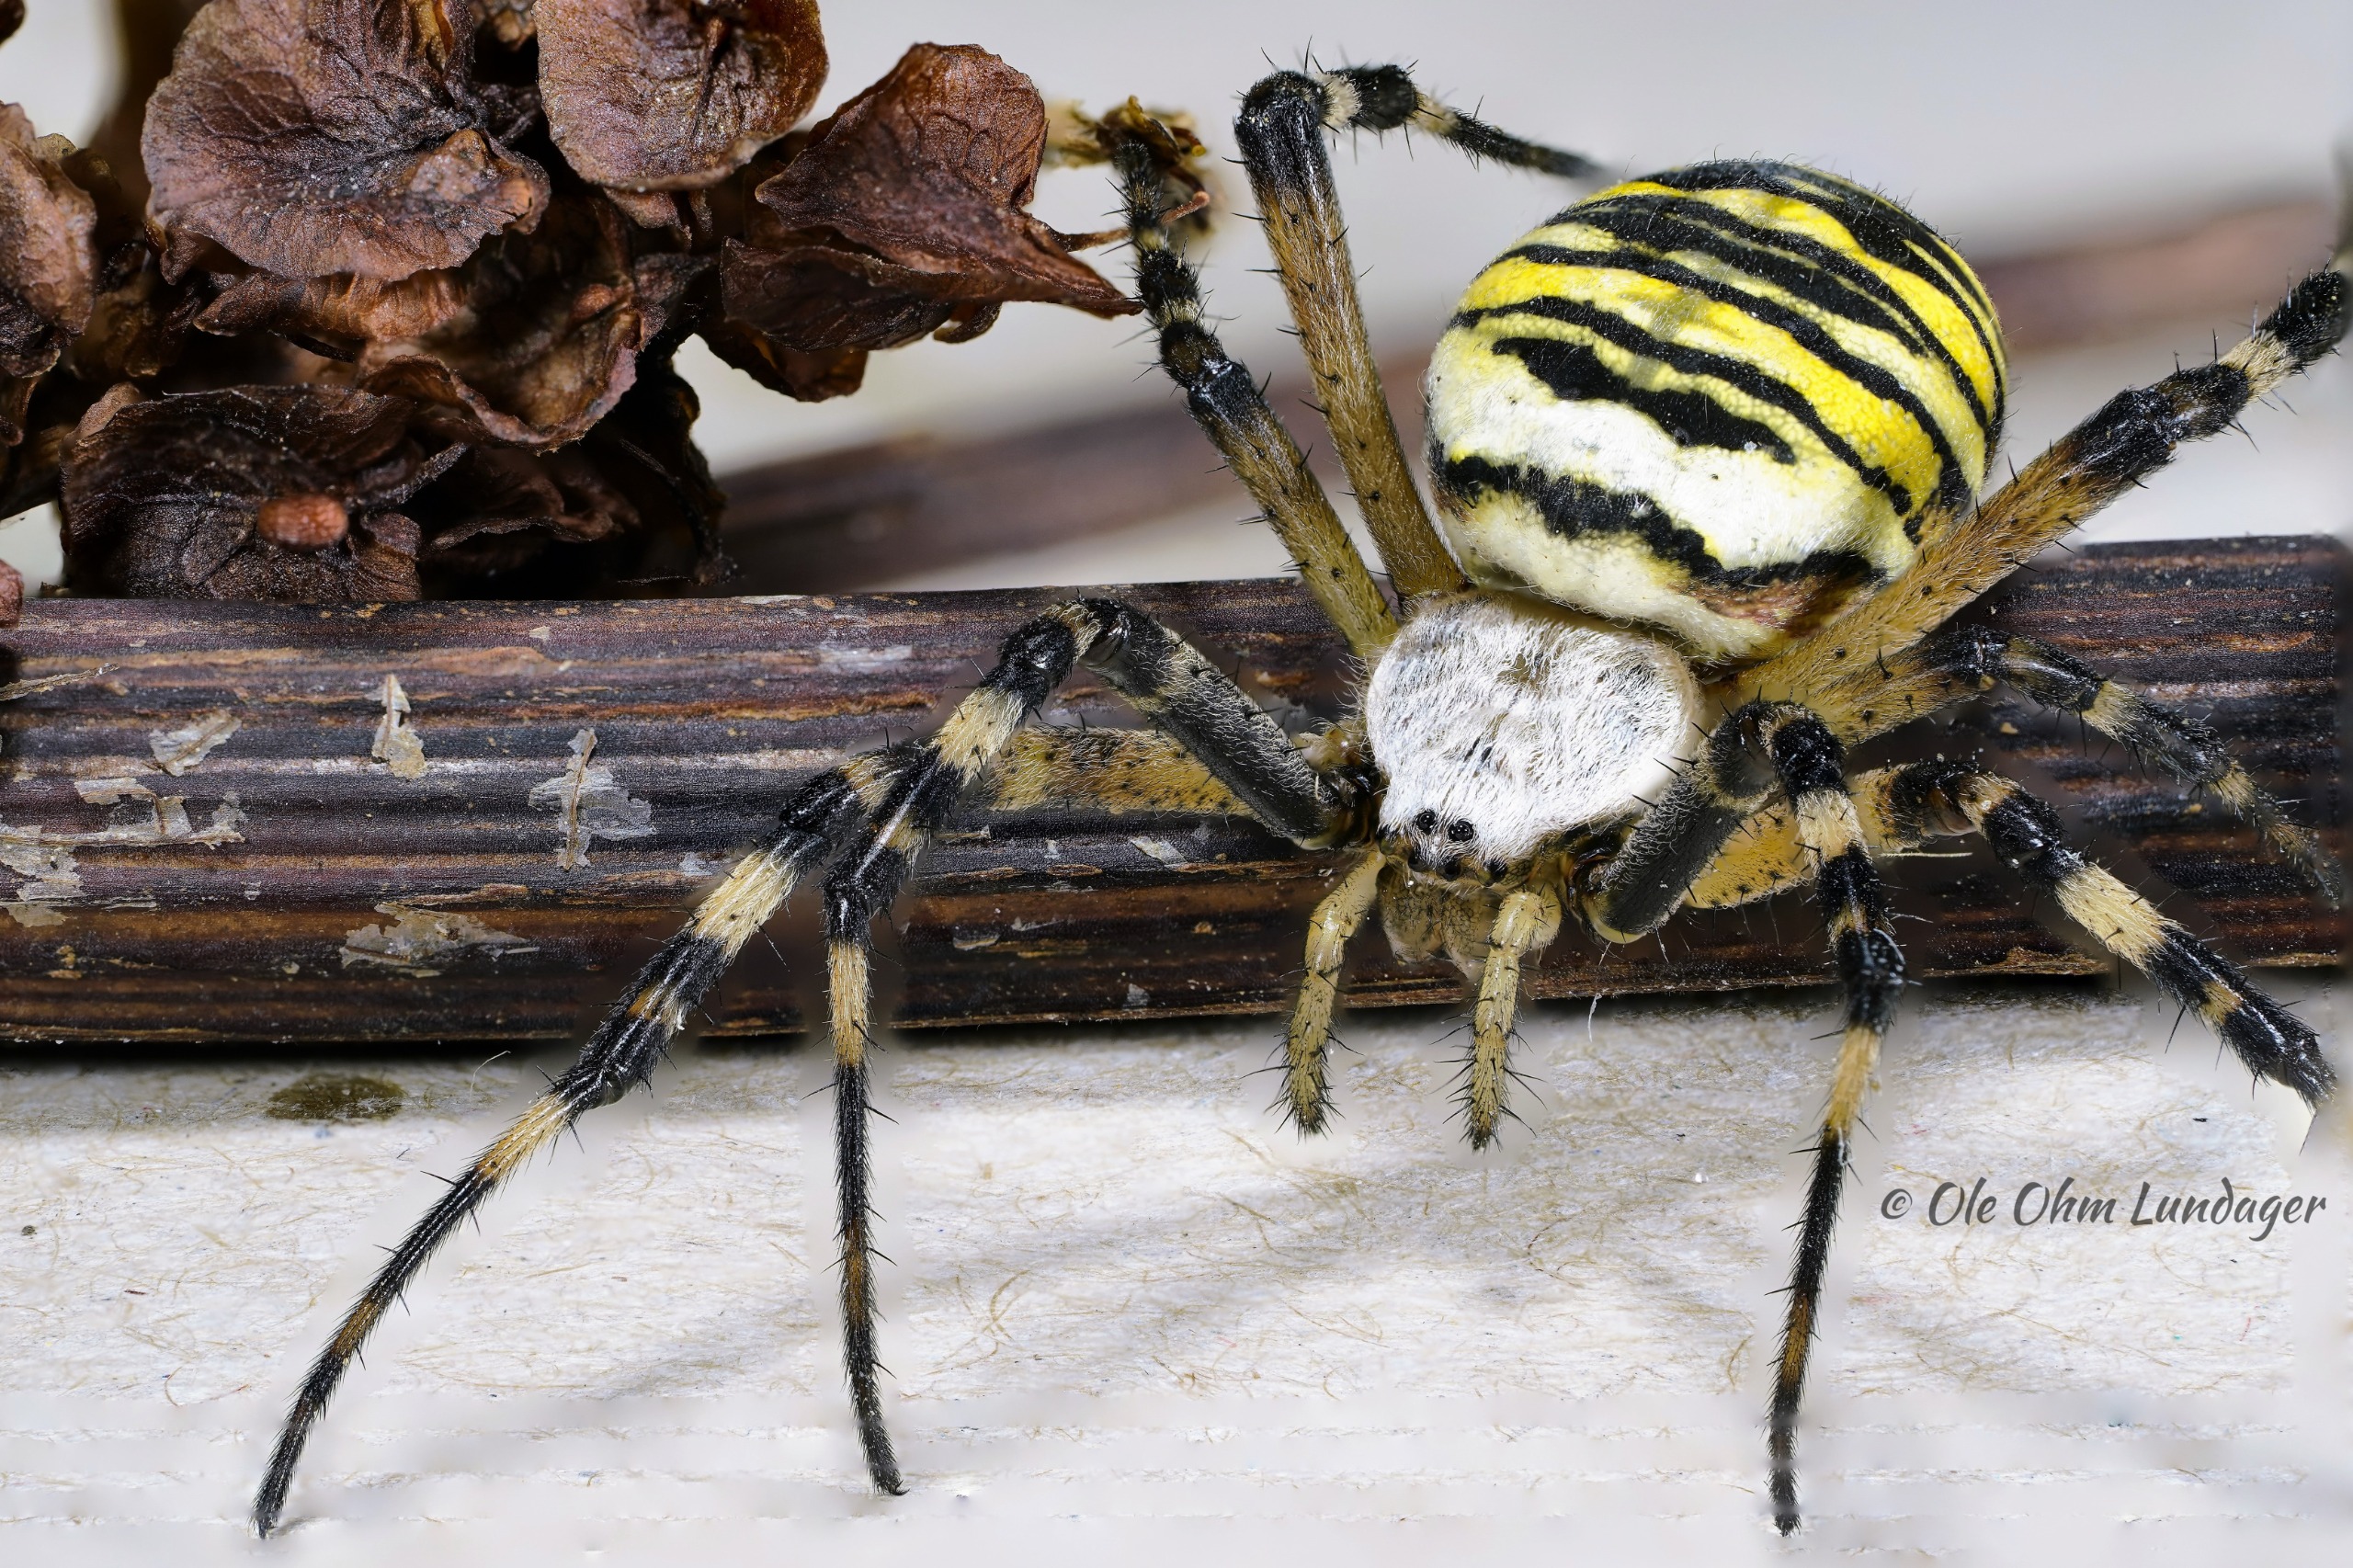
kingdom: Animalia
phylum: Arthropoda
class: Arachnida
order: Araneae
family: Araneidae
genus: Argiope
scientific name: Argiope bruennichi
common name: Hvepseedderkop
